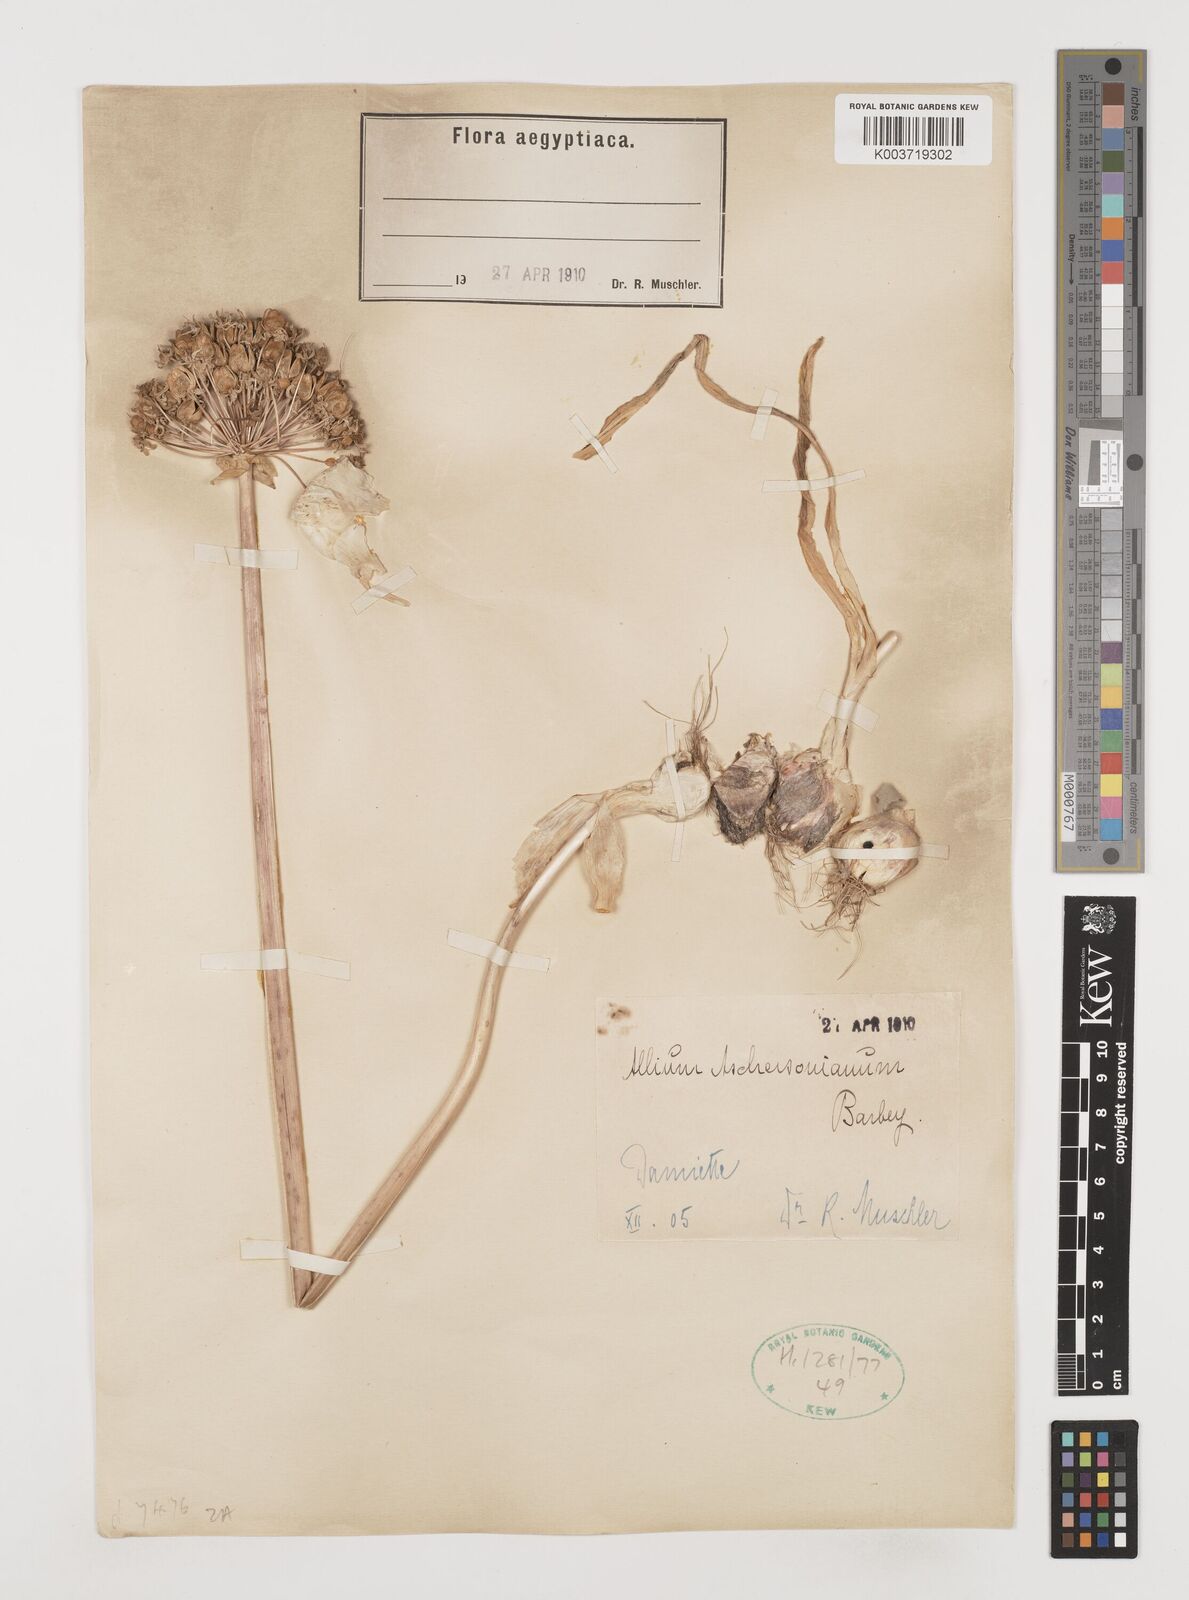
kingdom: Plantae
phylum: Tracheophyta
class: Liliopsida
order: Asparagales
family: Amaryllidaceae
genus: Allium
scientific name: Allium aschersonianum
